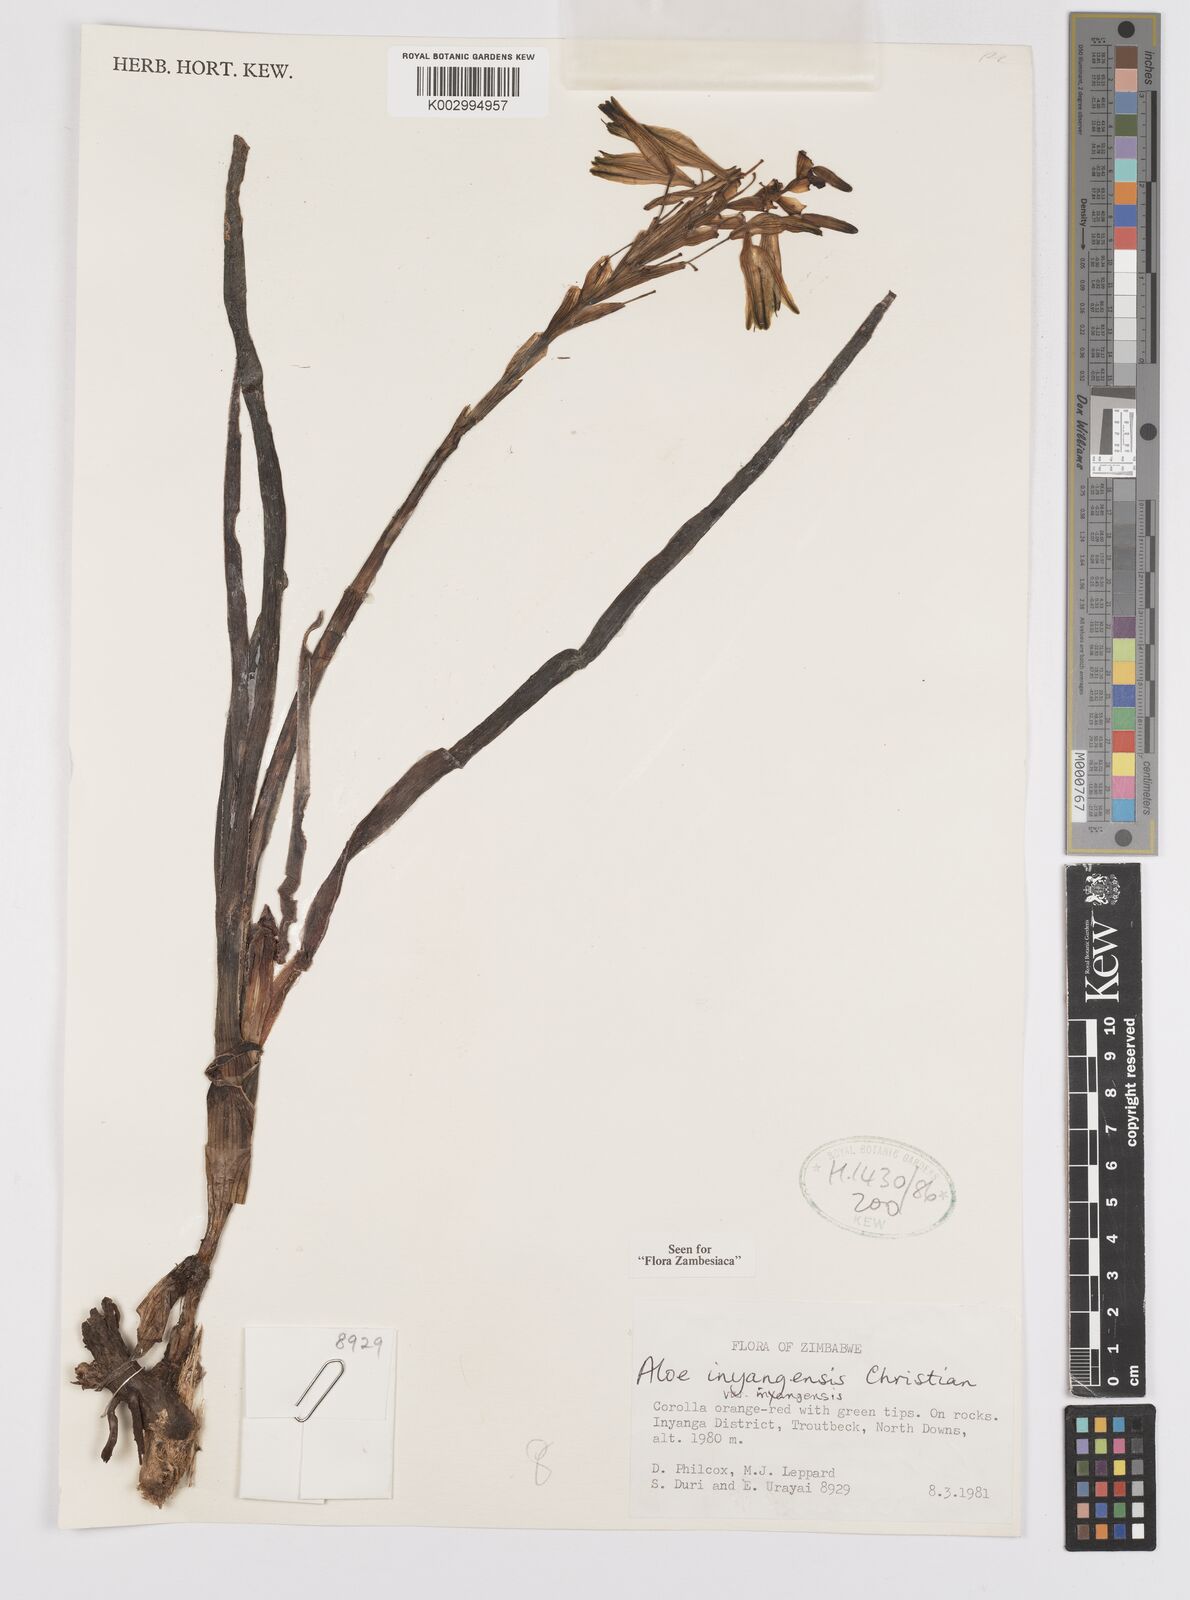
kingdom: Plantae
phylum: Tracheophyta
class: Liliopsida
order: Asparagales
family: Asphodelaceae
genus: Aloe
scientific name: Aloe inyangensis
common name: Inyanga aloe
